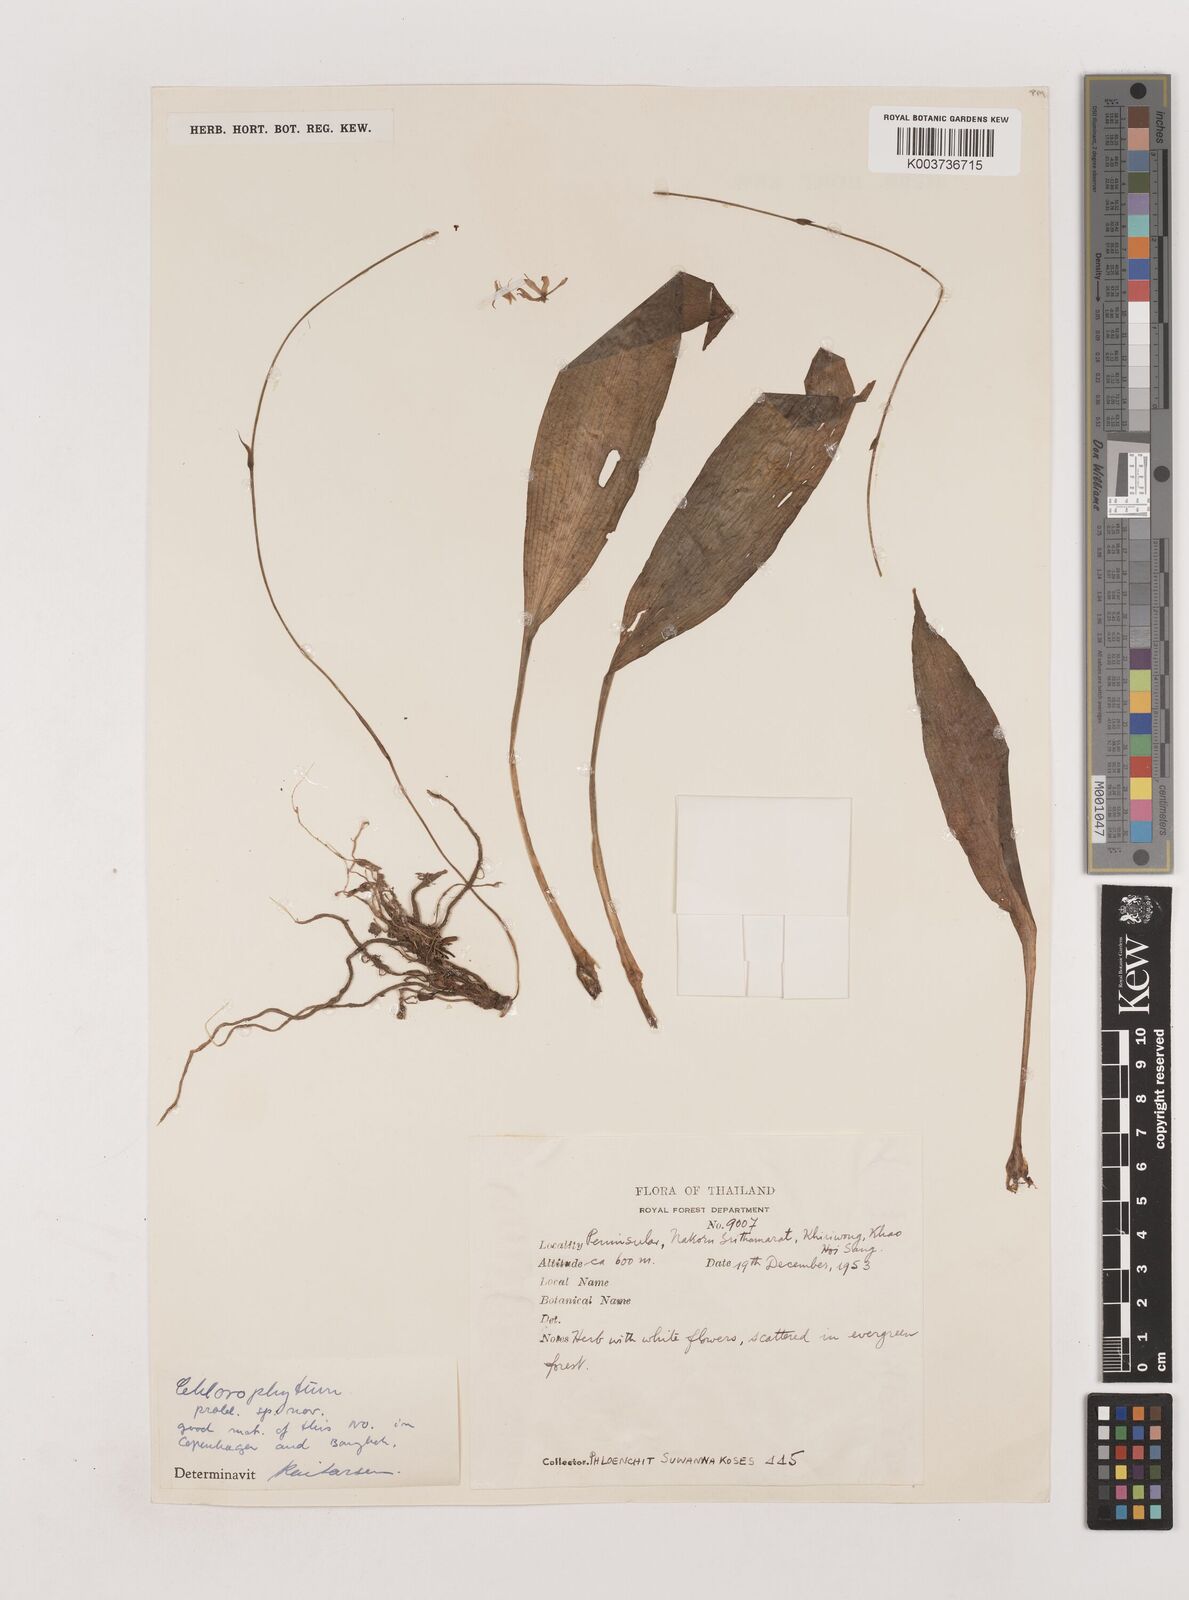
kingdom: Plantae
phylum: Tracheophyta
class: Liliopsida
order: Asparagales
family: Asparagaceae
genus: Chlorophytum
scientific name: Chlorophytum simplex
